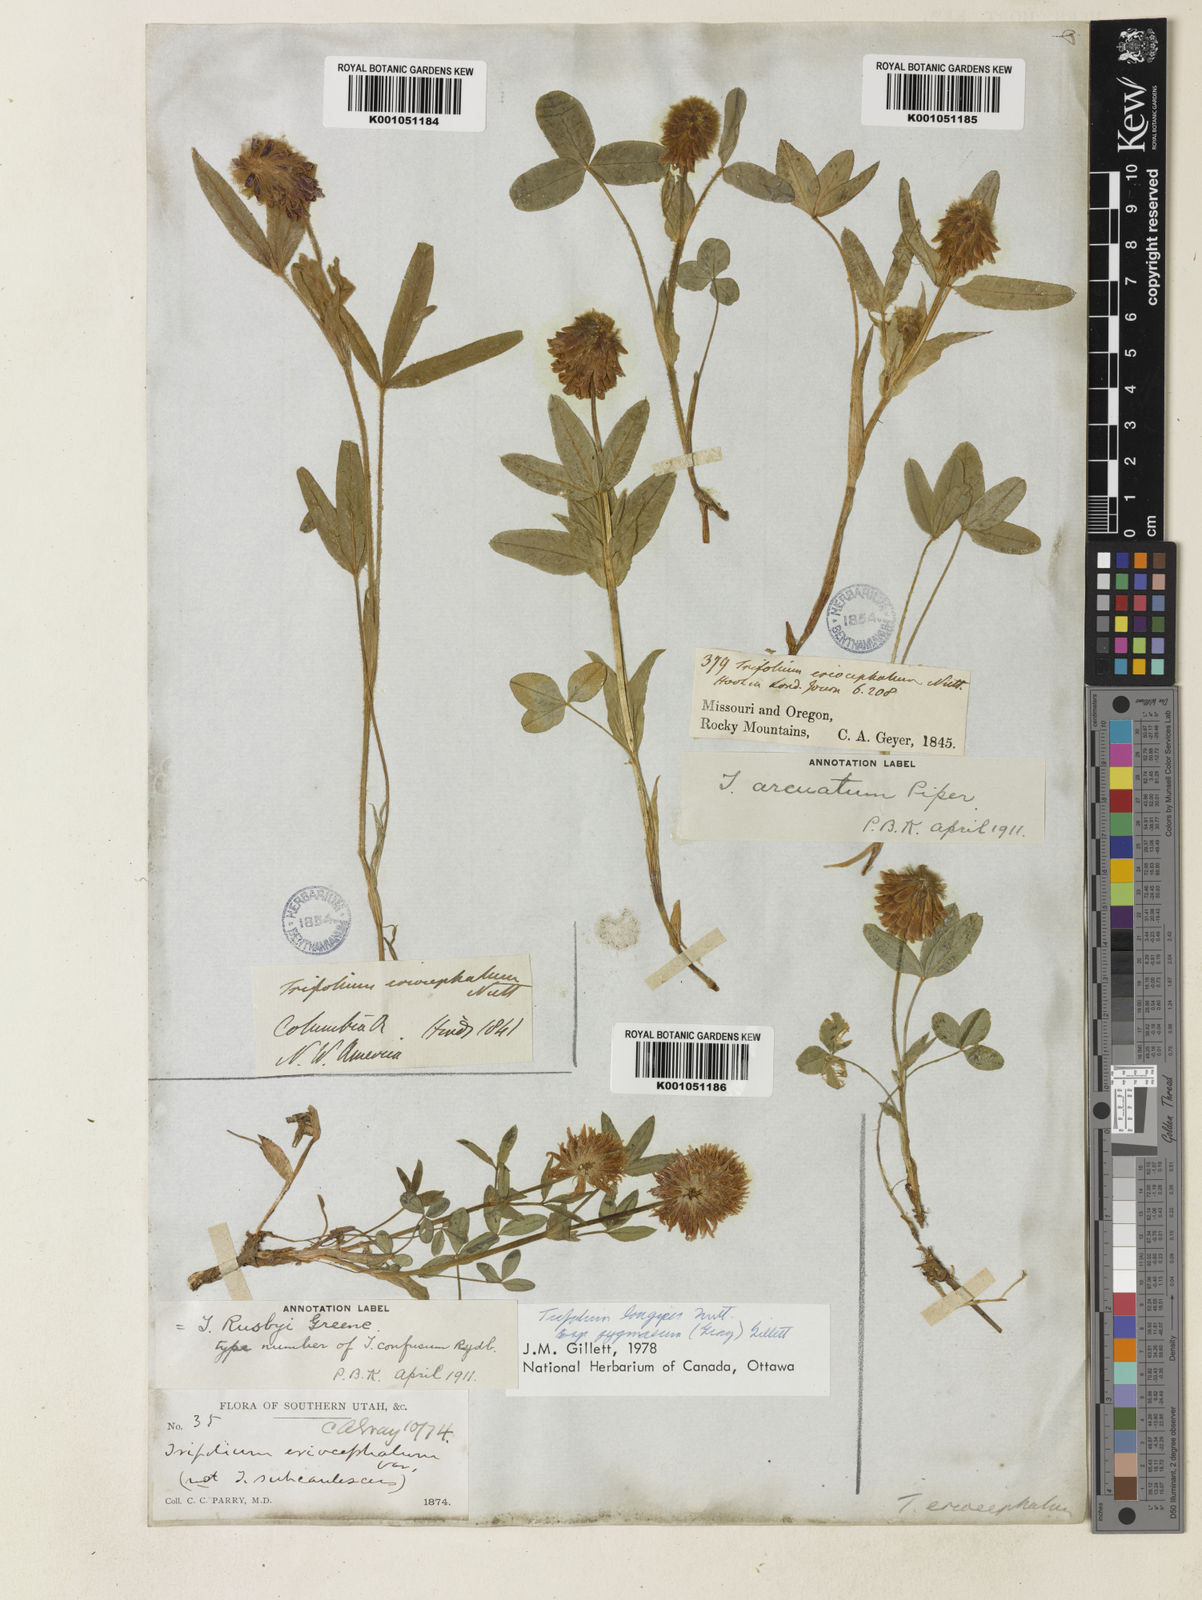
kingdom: Plantae
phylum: Tracheophyta
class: Magnoliopsida
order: Fabales
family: Fabaceae
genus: Trifolium
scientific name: Trifolium longipes
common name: Long-stalk clover
